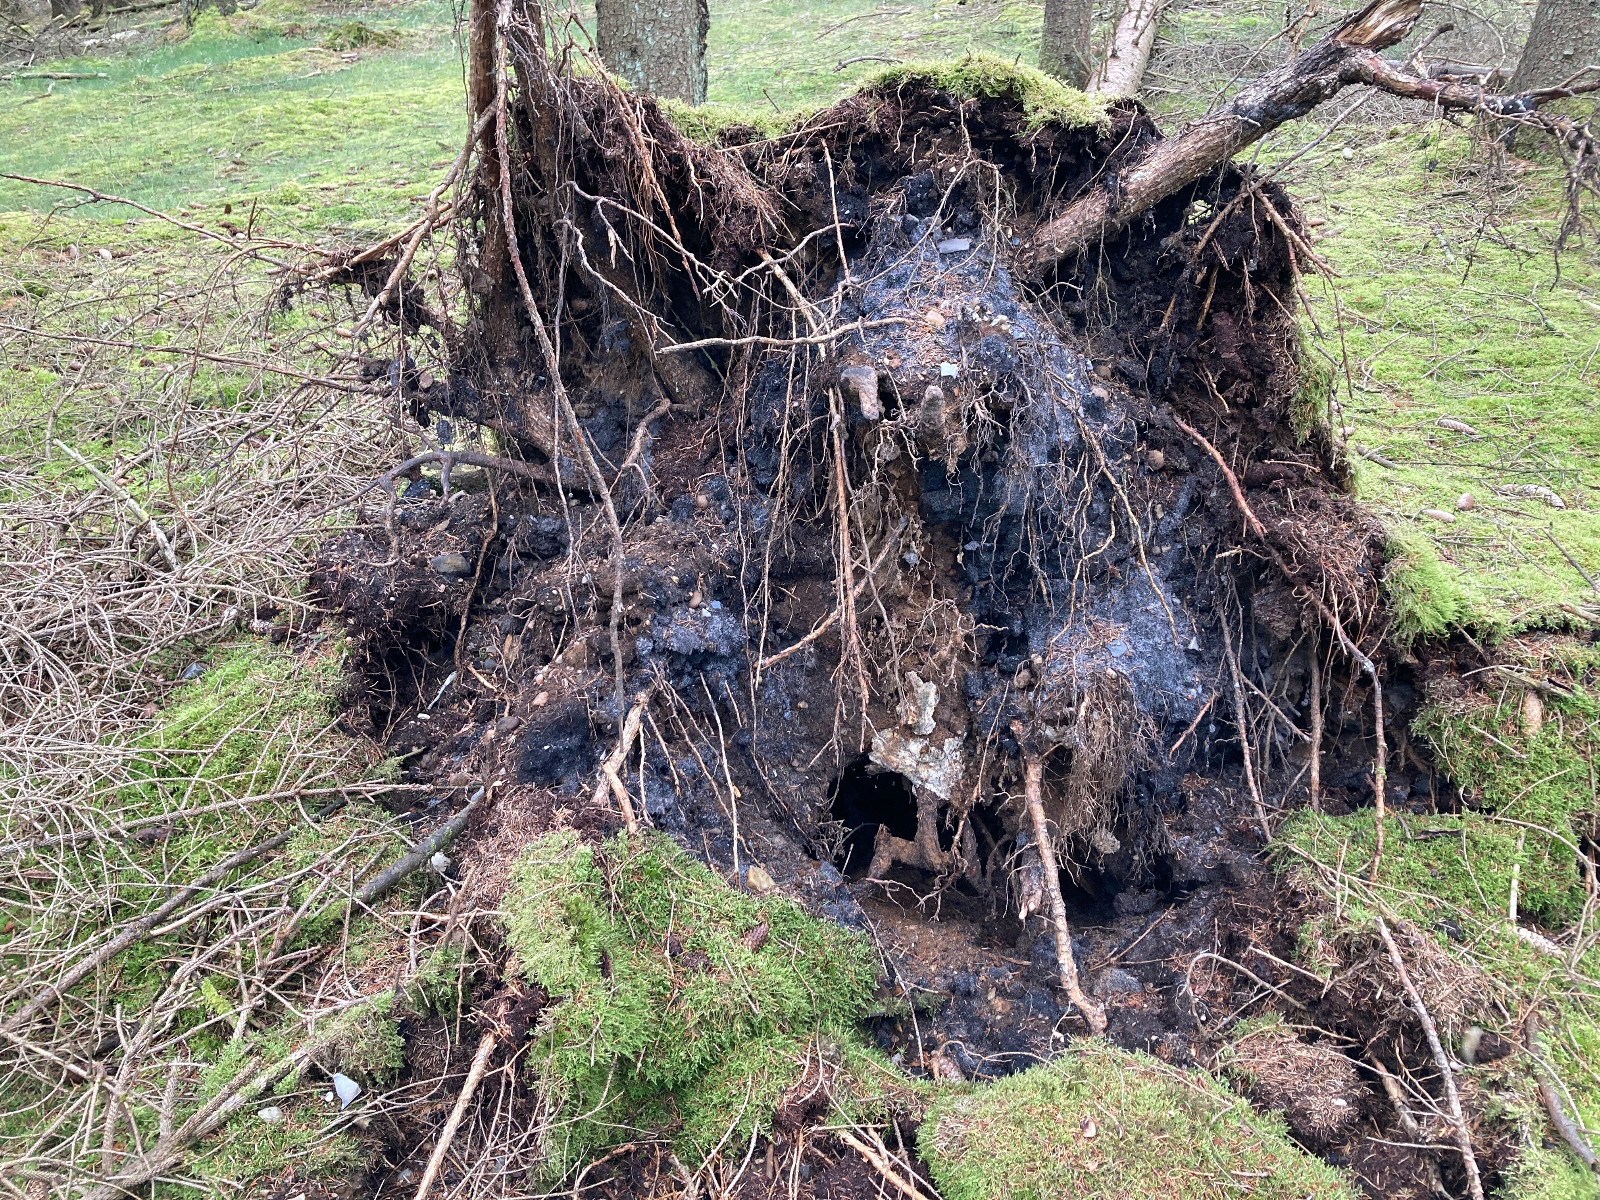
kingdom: Fungi
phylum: Basidiomycota
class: Agaricomycetes
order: Polyporales
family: Polyporaceae
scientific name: Polyporaceae
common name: poresvampfamilien
